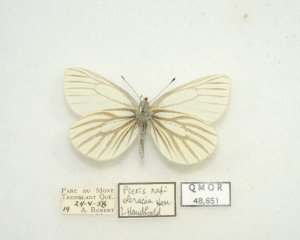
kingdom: Animalia
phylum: Arthropoda
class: Insecta
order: Lepidoptera
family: Pieridae
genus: Pieris
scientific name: Pieris oleracea
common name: Mustard White
